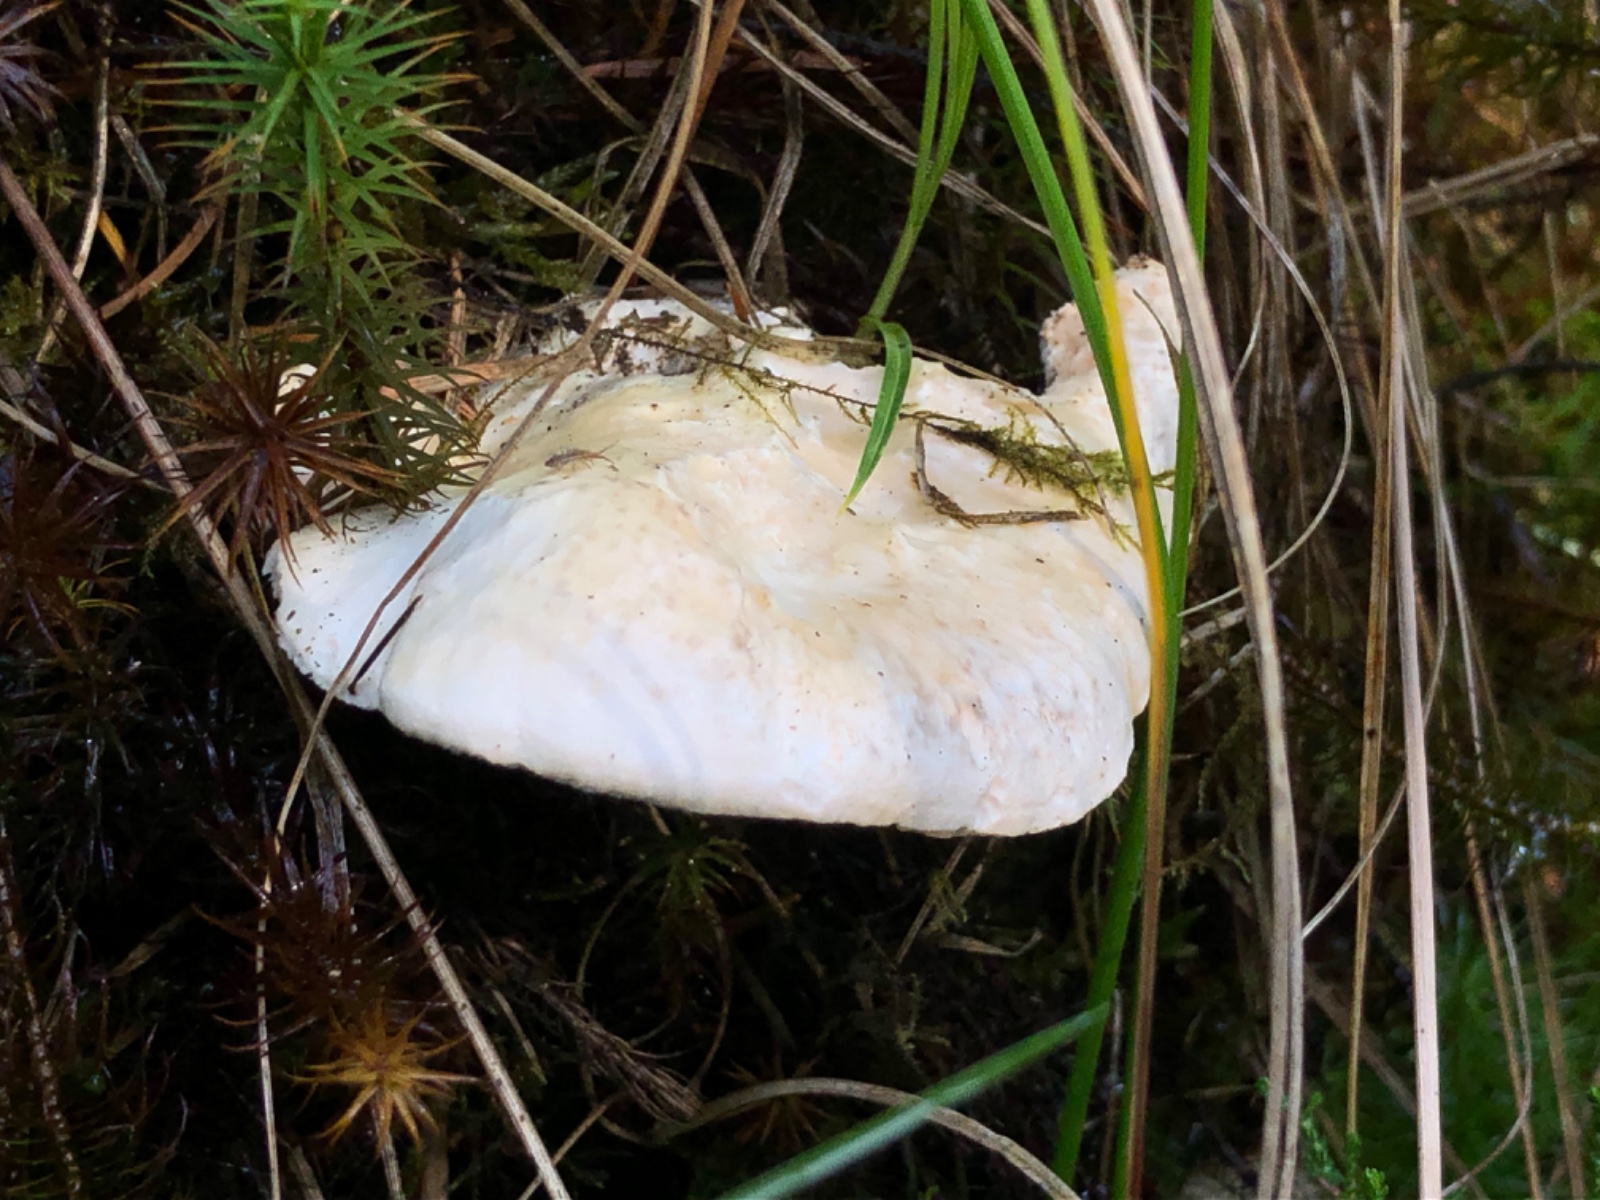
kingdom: Fungi
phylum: Basidiomycota
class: Agaricomycetes
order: Cantharellales
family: Hydnaceae
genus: Hydnum
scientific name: Hydnum
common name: pigsvamp
